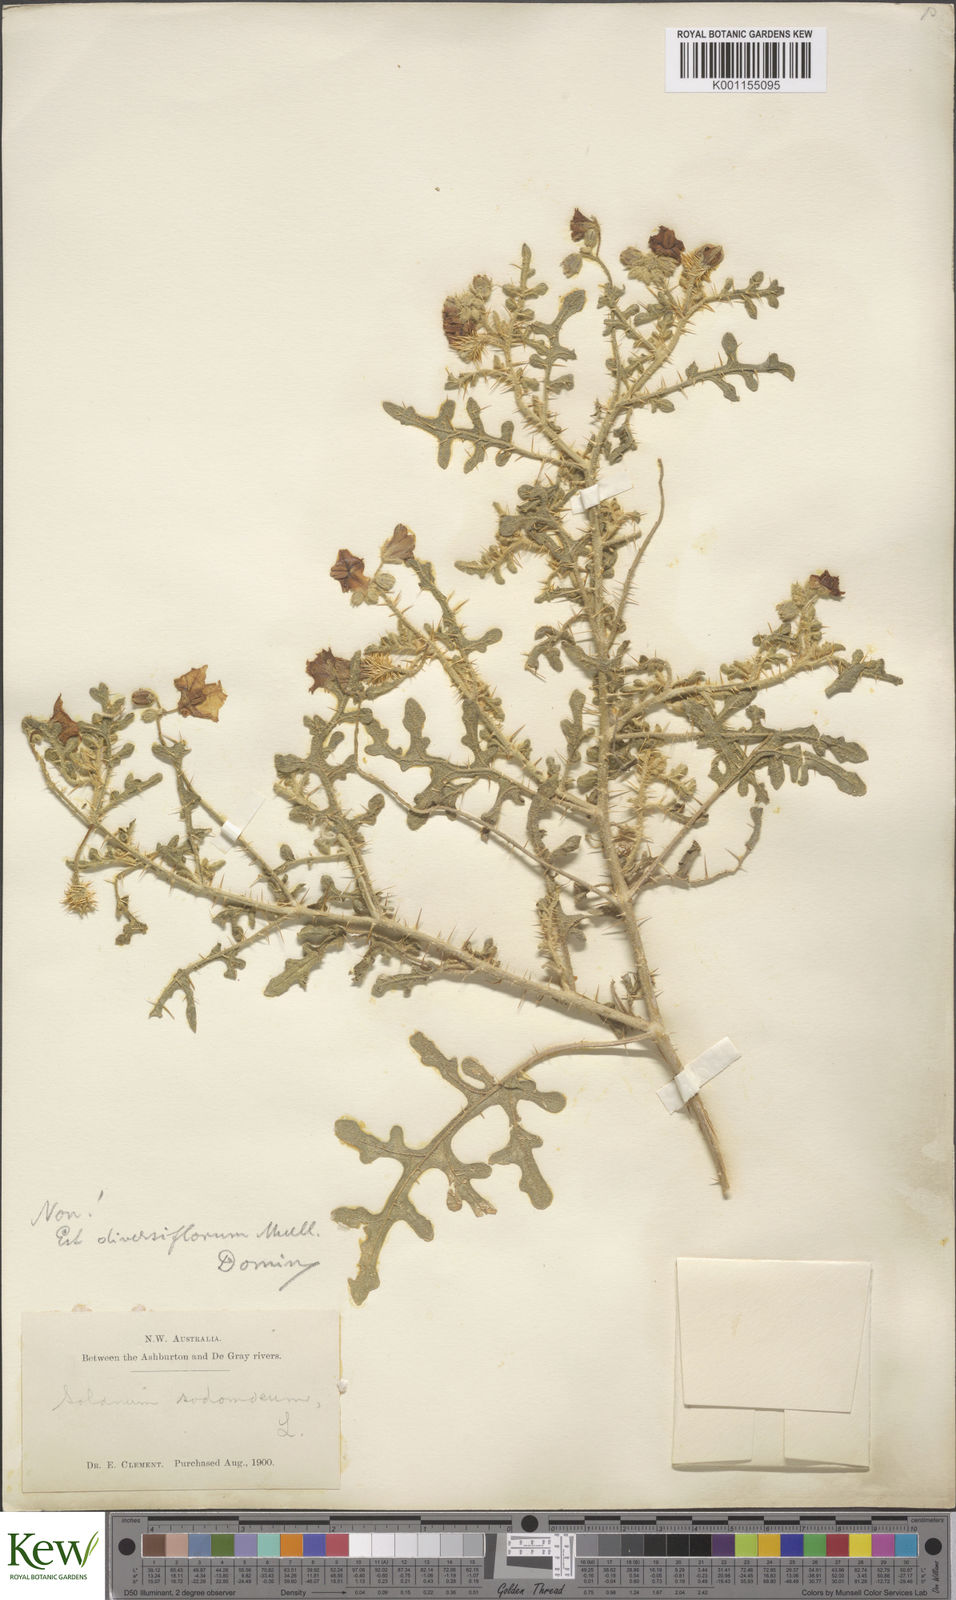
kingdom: Plantae
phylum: Tracheophyta
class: Magnoliopsida
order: Solanales
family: Solanaceae
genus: Solanum
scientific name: Solanum diversiflorum
